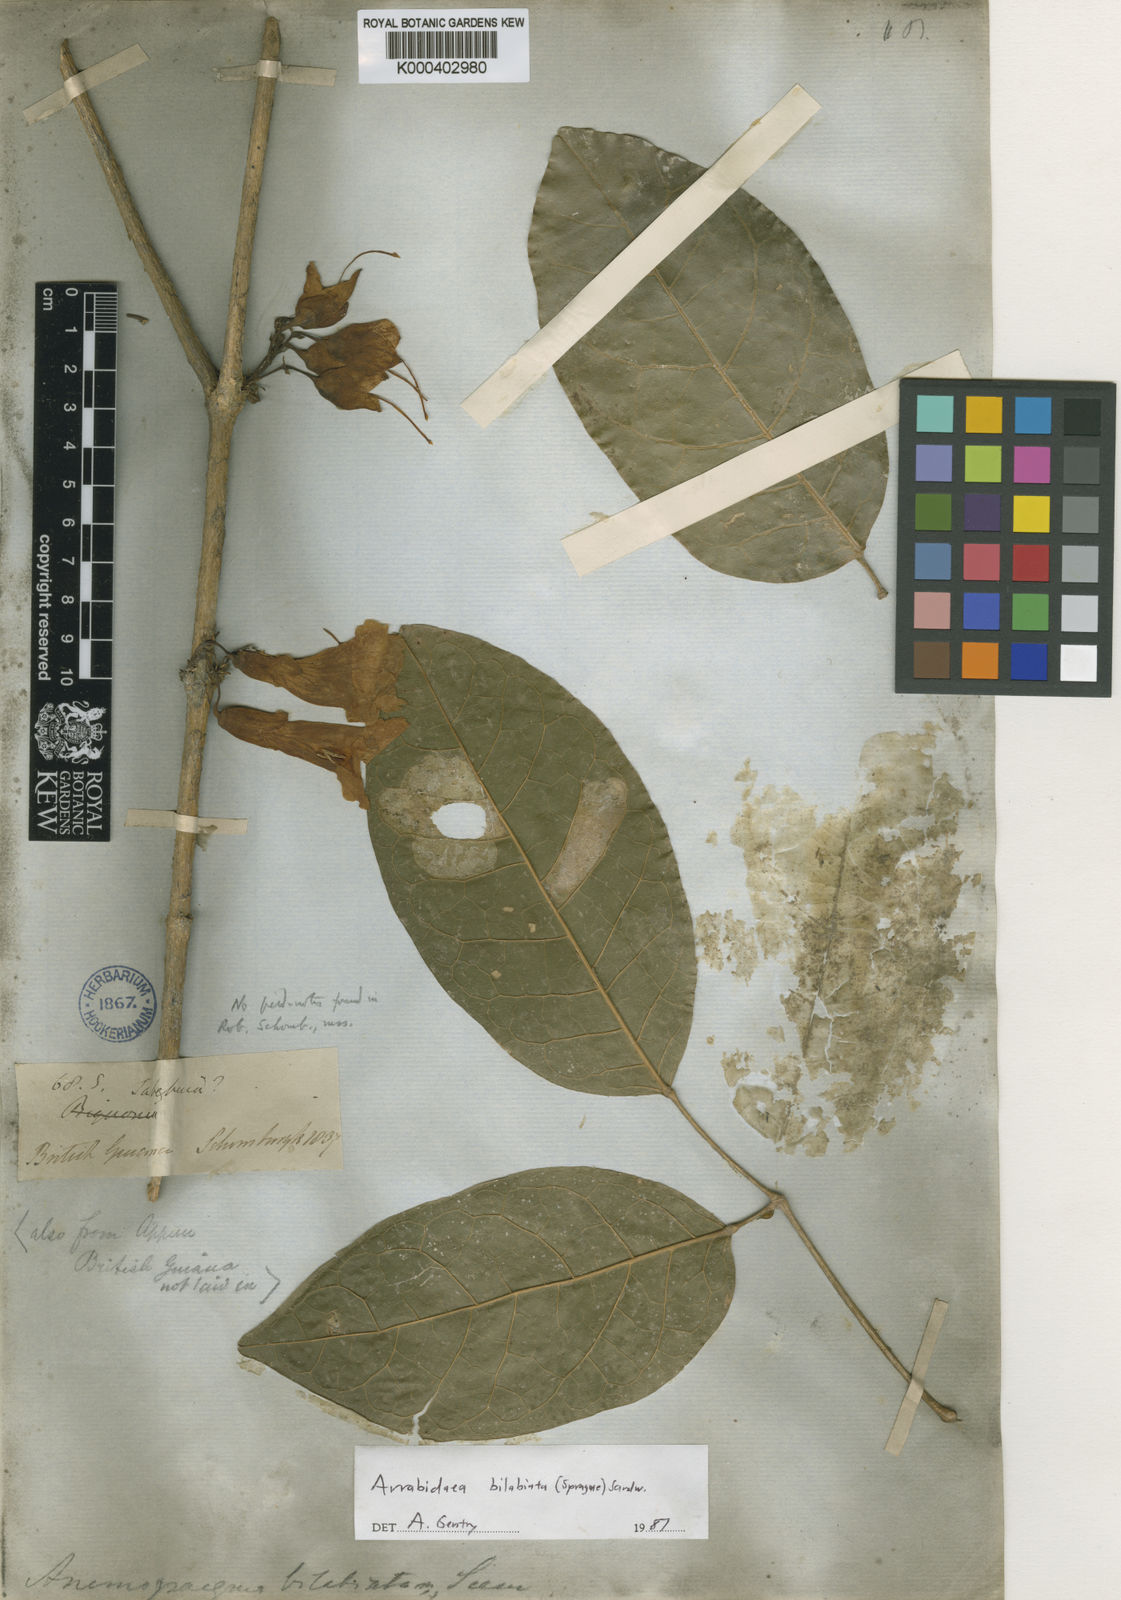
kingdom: Plantae
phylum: Tracheophyta
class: Magnoliopsida
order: Lamiales
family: Bignoniaceae
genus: Tanaecium
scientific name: Tanaecium bilabiatum
